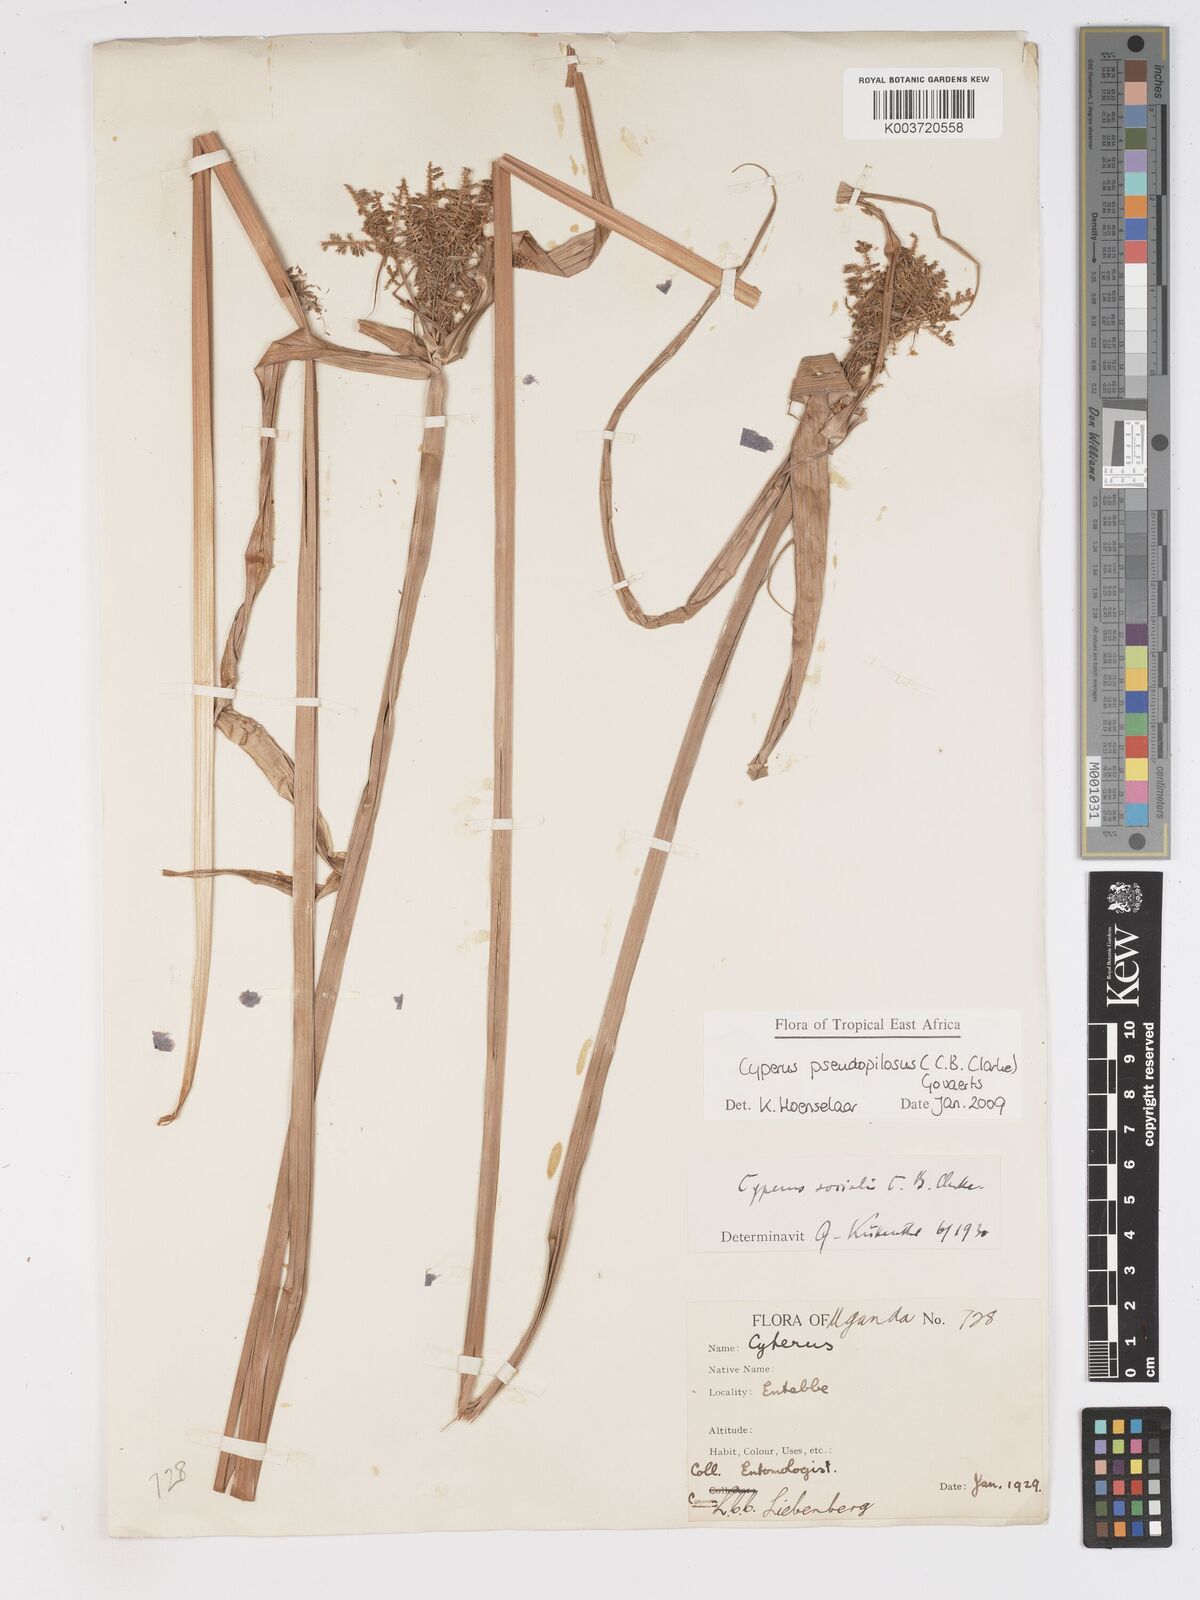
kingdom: Plantae
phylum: Tracheophyta
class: Liliopsida
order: Poales
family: Cyperaceae
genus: Cyperus
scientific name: Cyperus pseudopilosus
